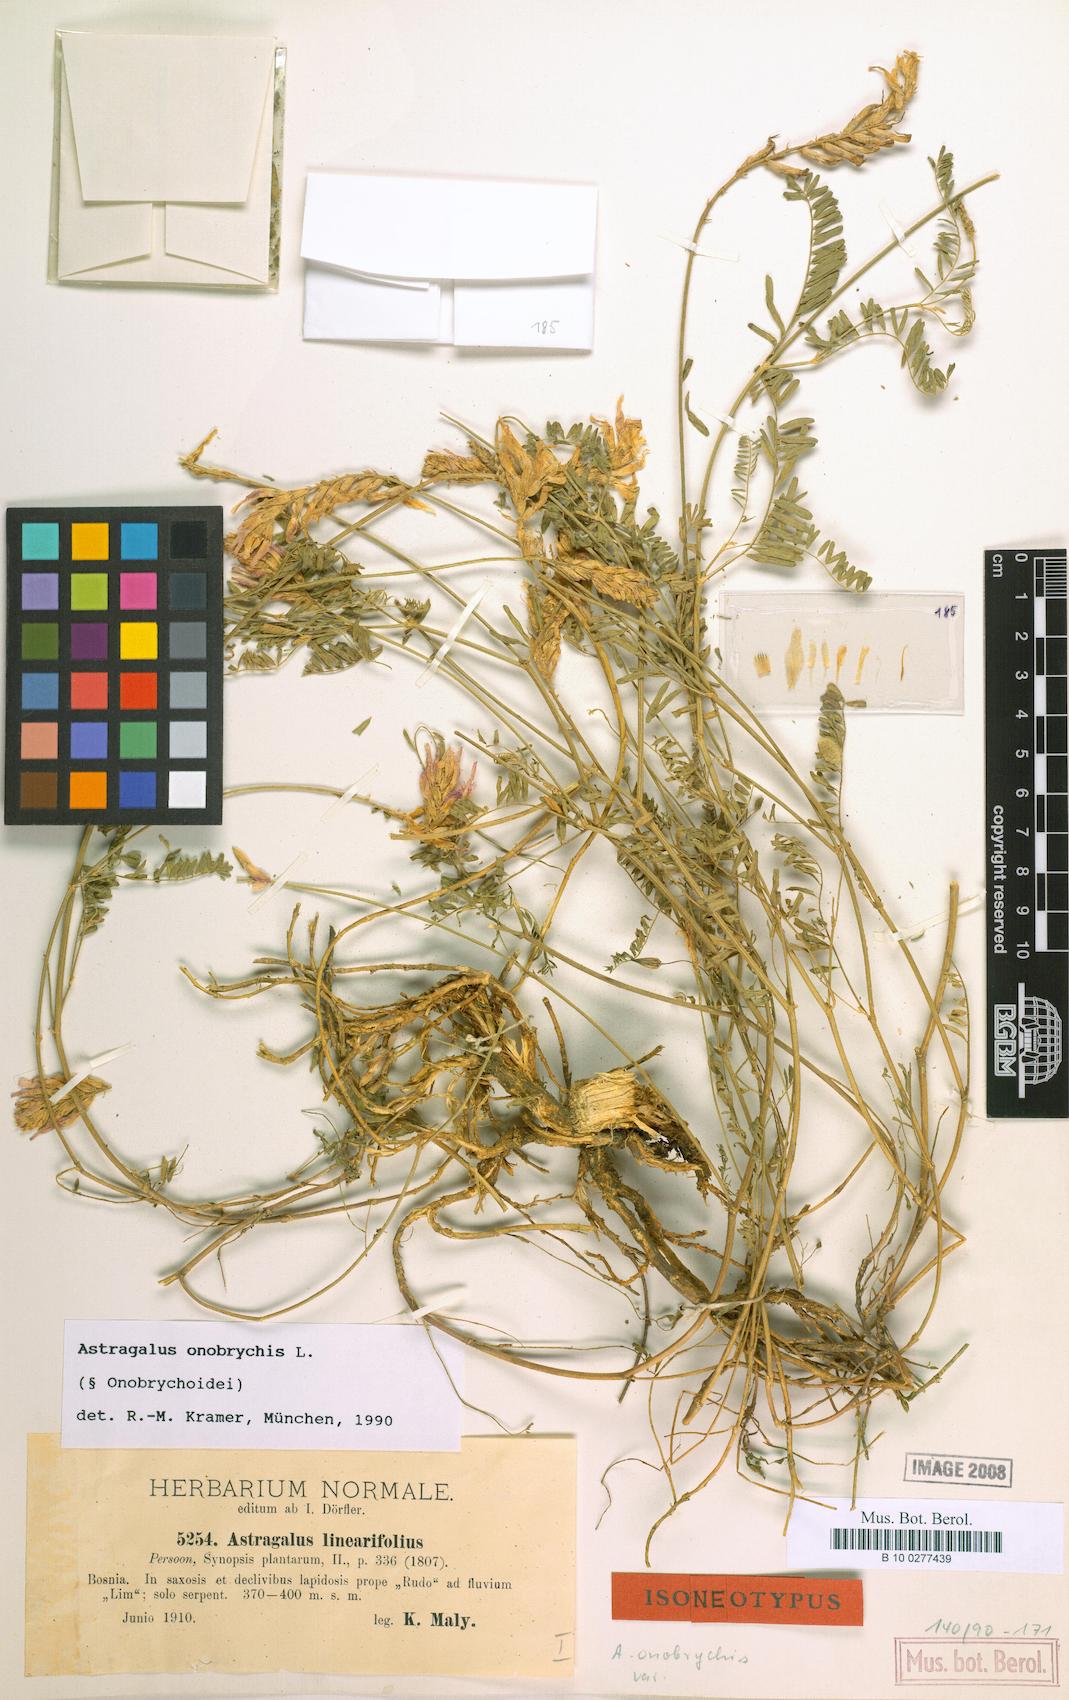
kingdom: Plantae
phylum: Tracheophyta
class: Magnoliopsida
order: Fabales
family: Fabaceae
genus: Astragalus
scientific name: Astragalus onobrychis
